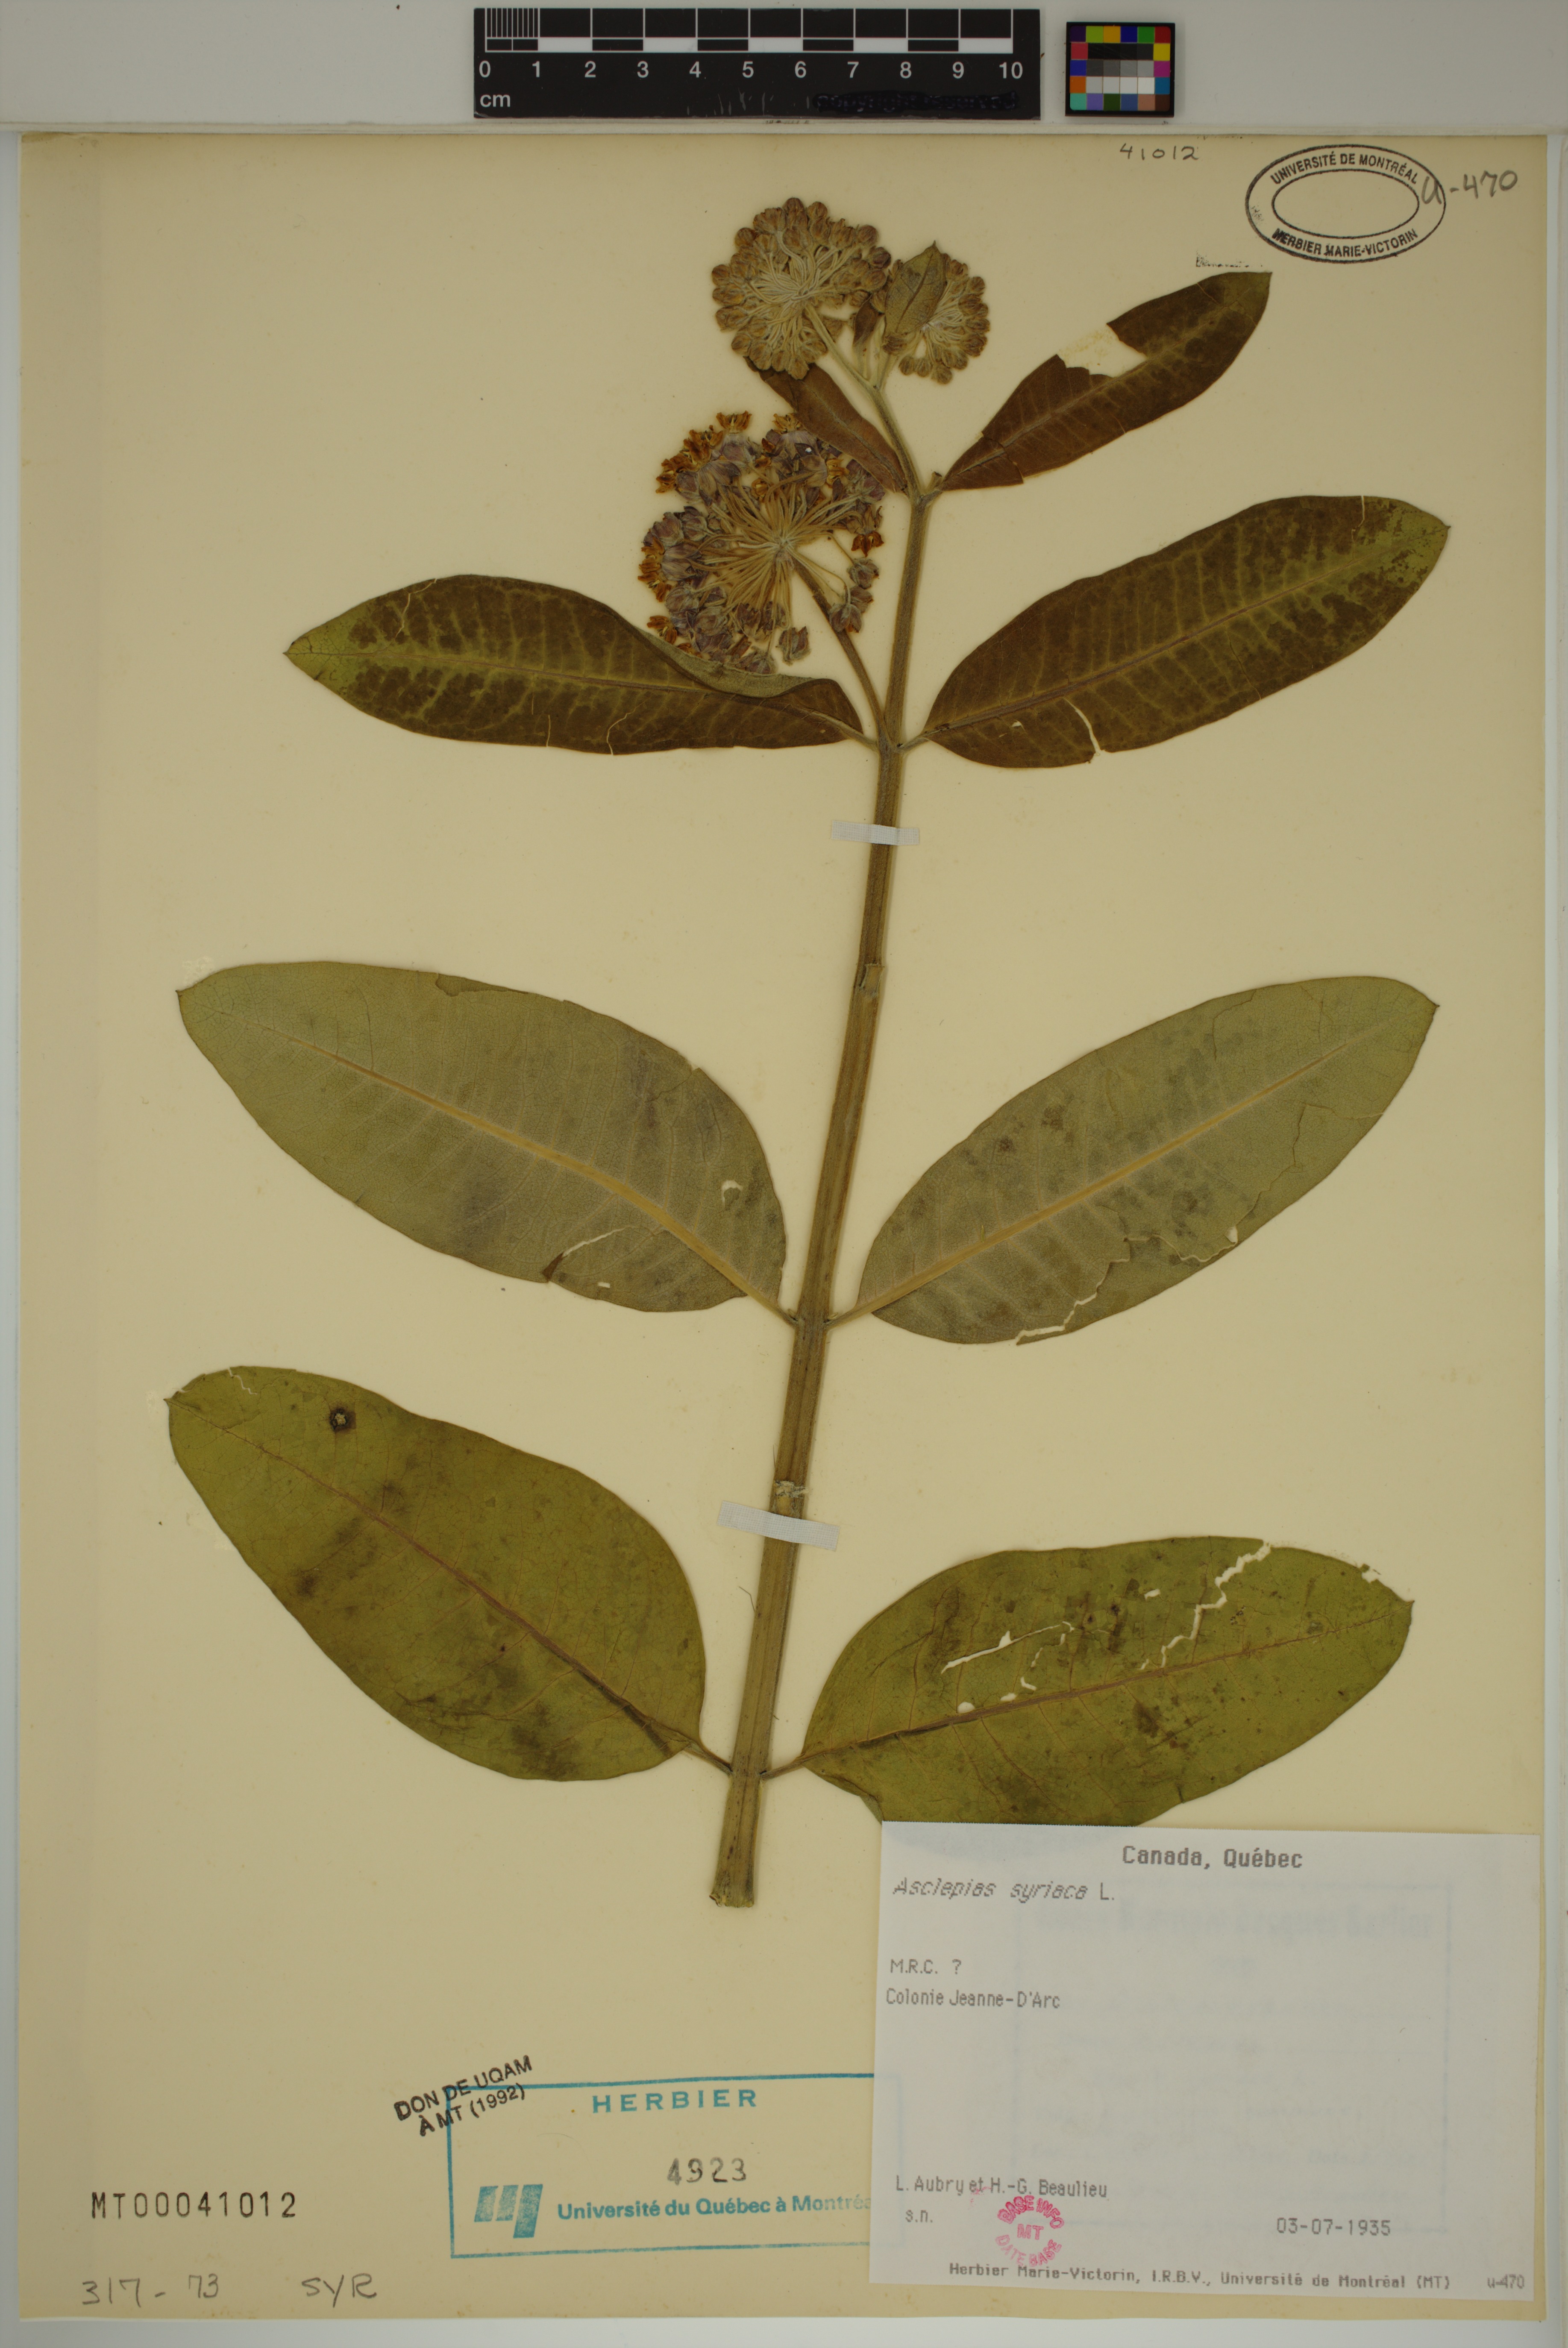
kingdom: Plantae
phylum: Tracheophyta
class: Magnoliopsida
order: Gentianales
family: Apocynaceae
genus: Asclepias
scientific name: Asclepias syriaca
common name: Common milkweed
